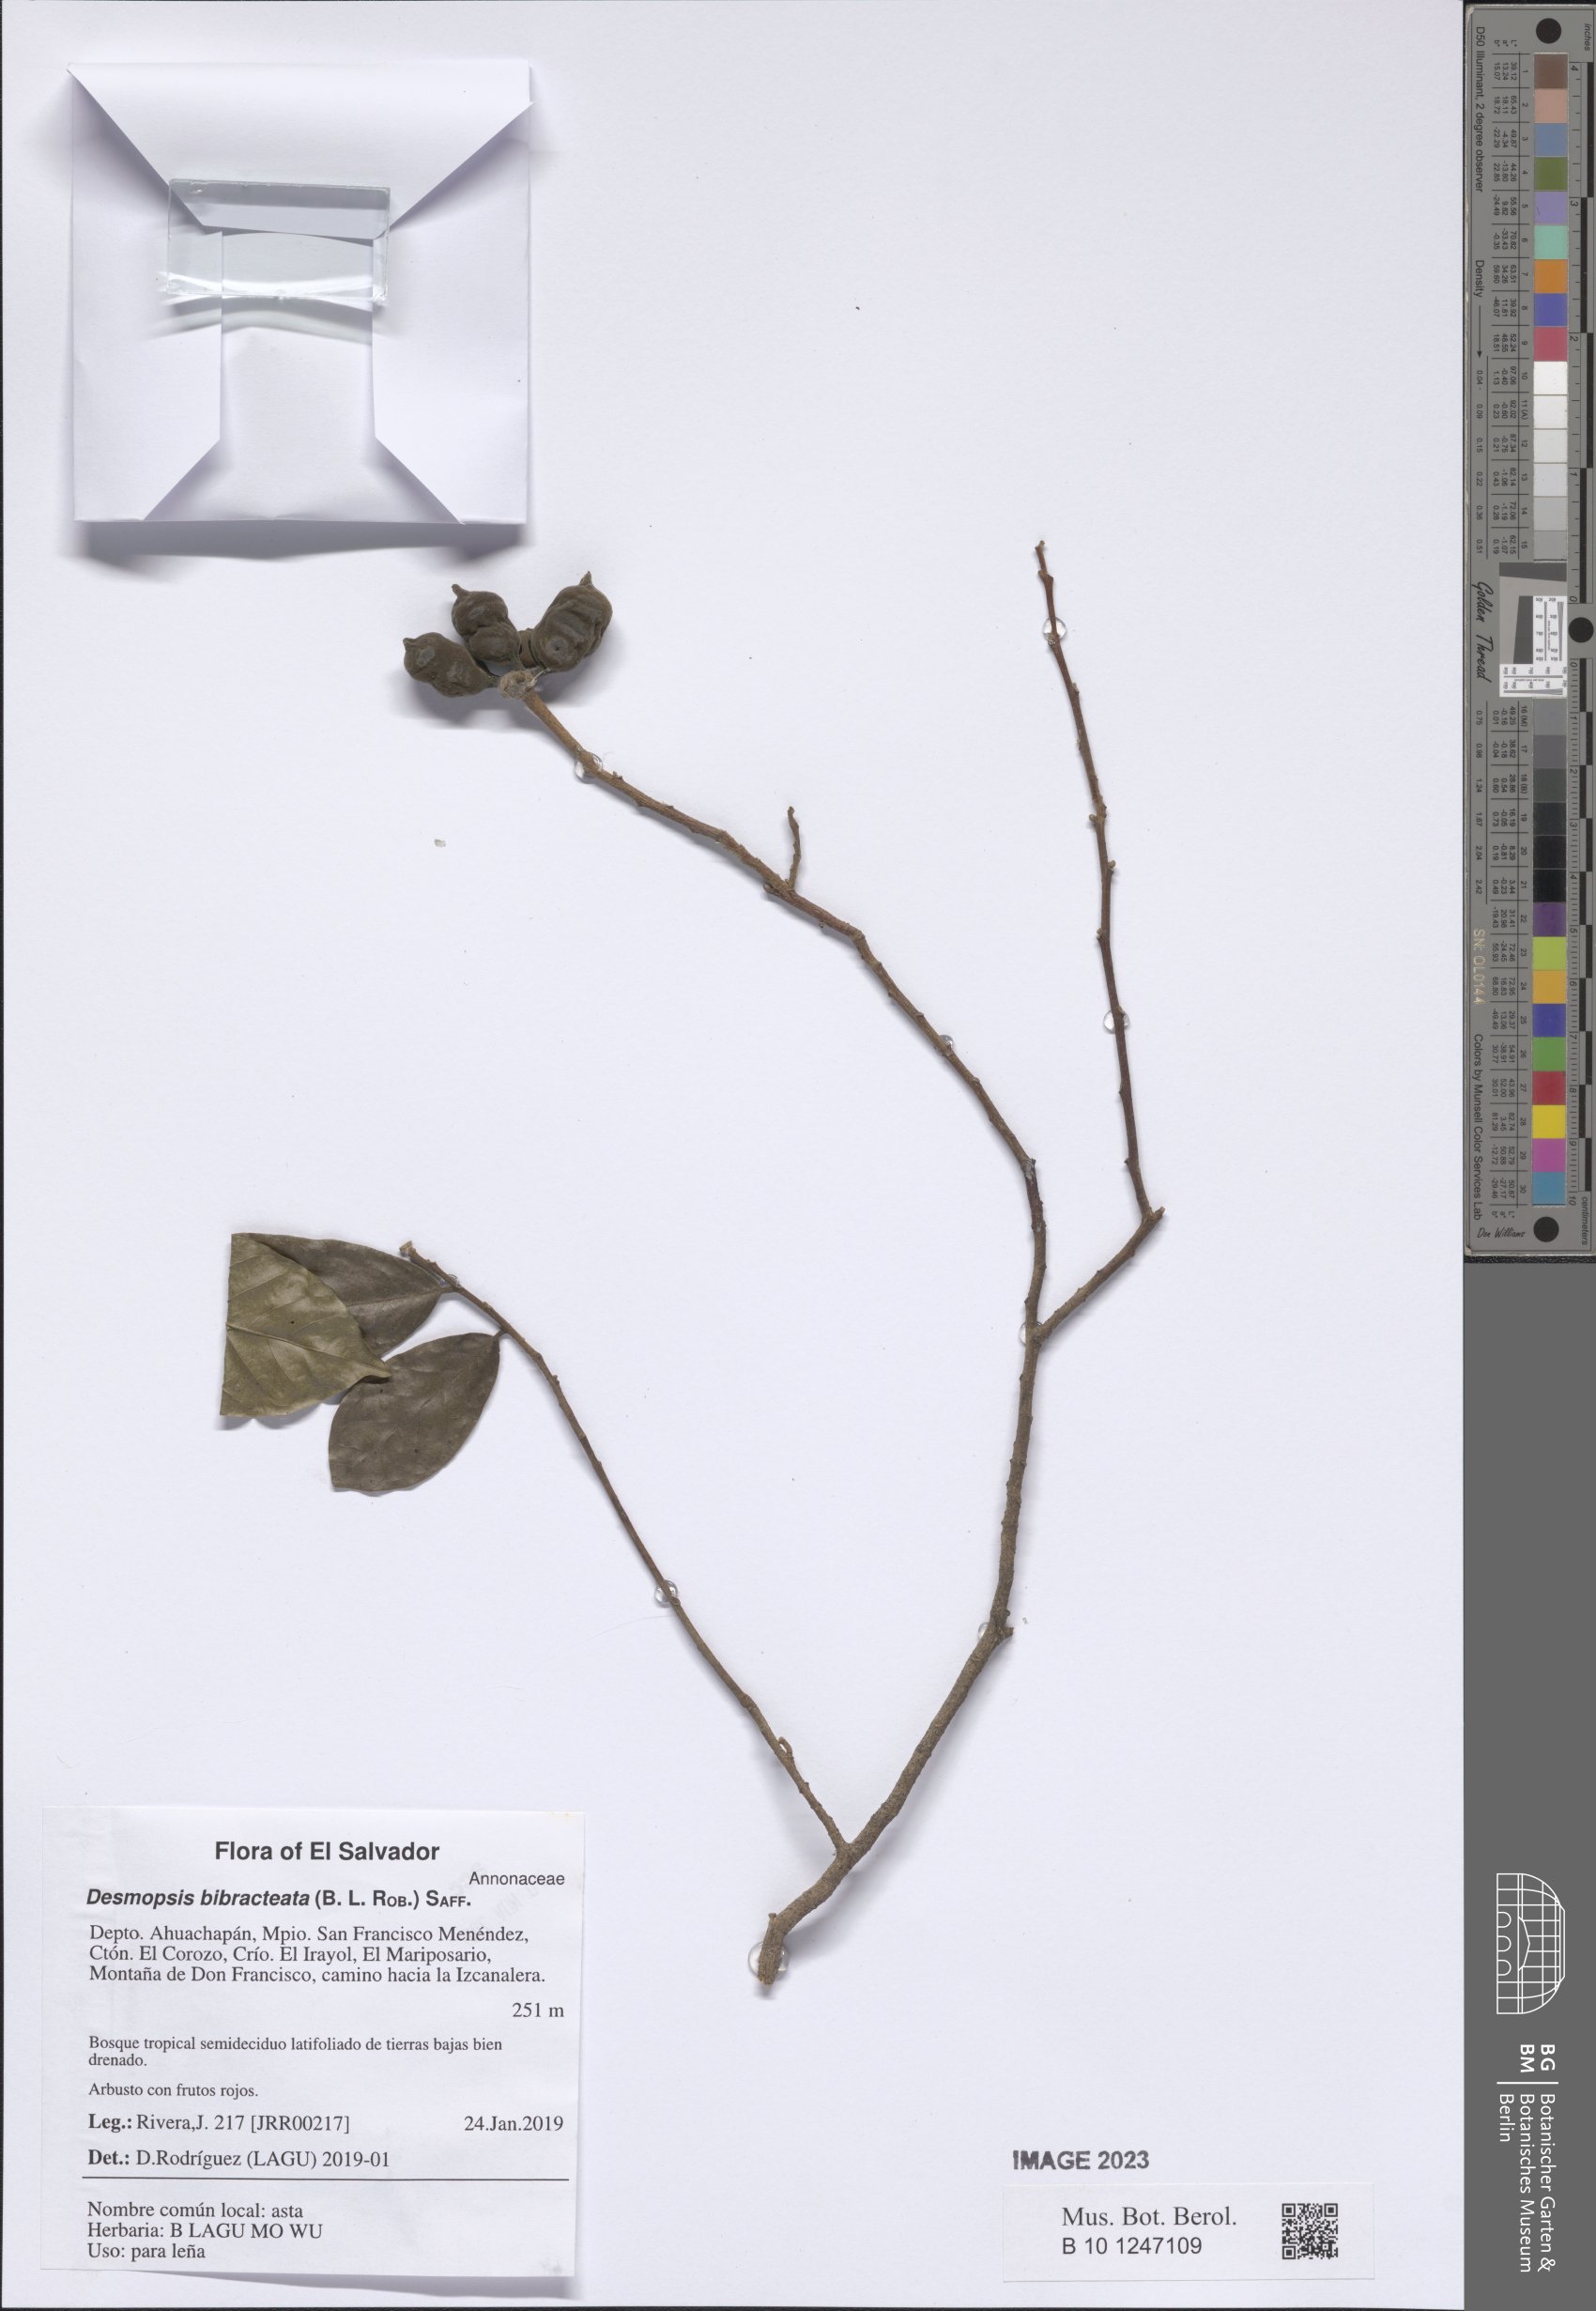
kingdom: Plantae
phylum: Tracheophyta
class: Magnoliopsida
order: Magnoliales
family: Annonaceae
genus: Desmopsis
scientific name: Desmopsis bibracteata
